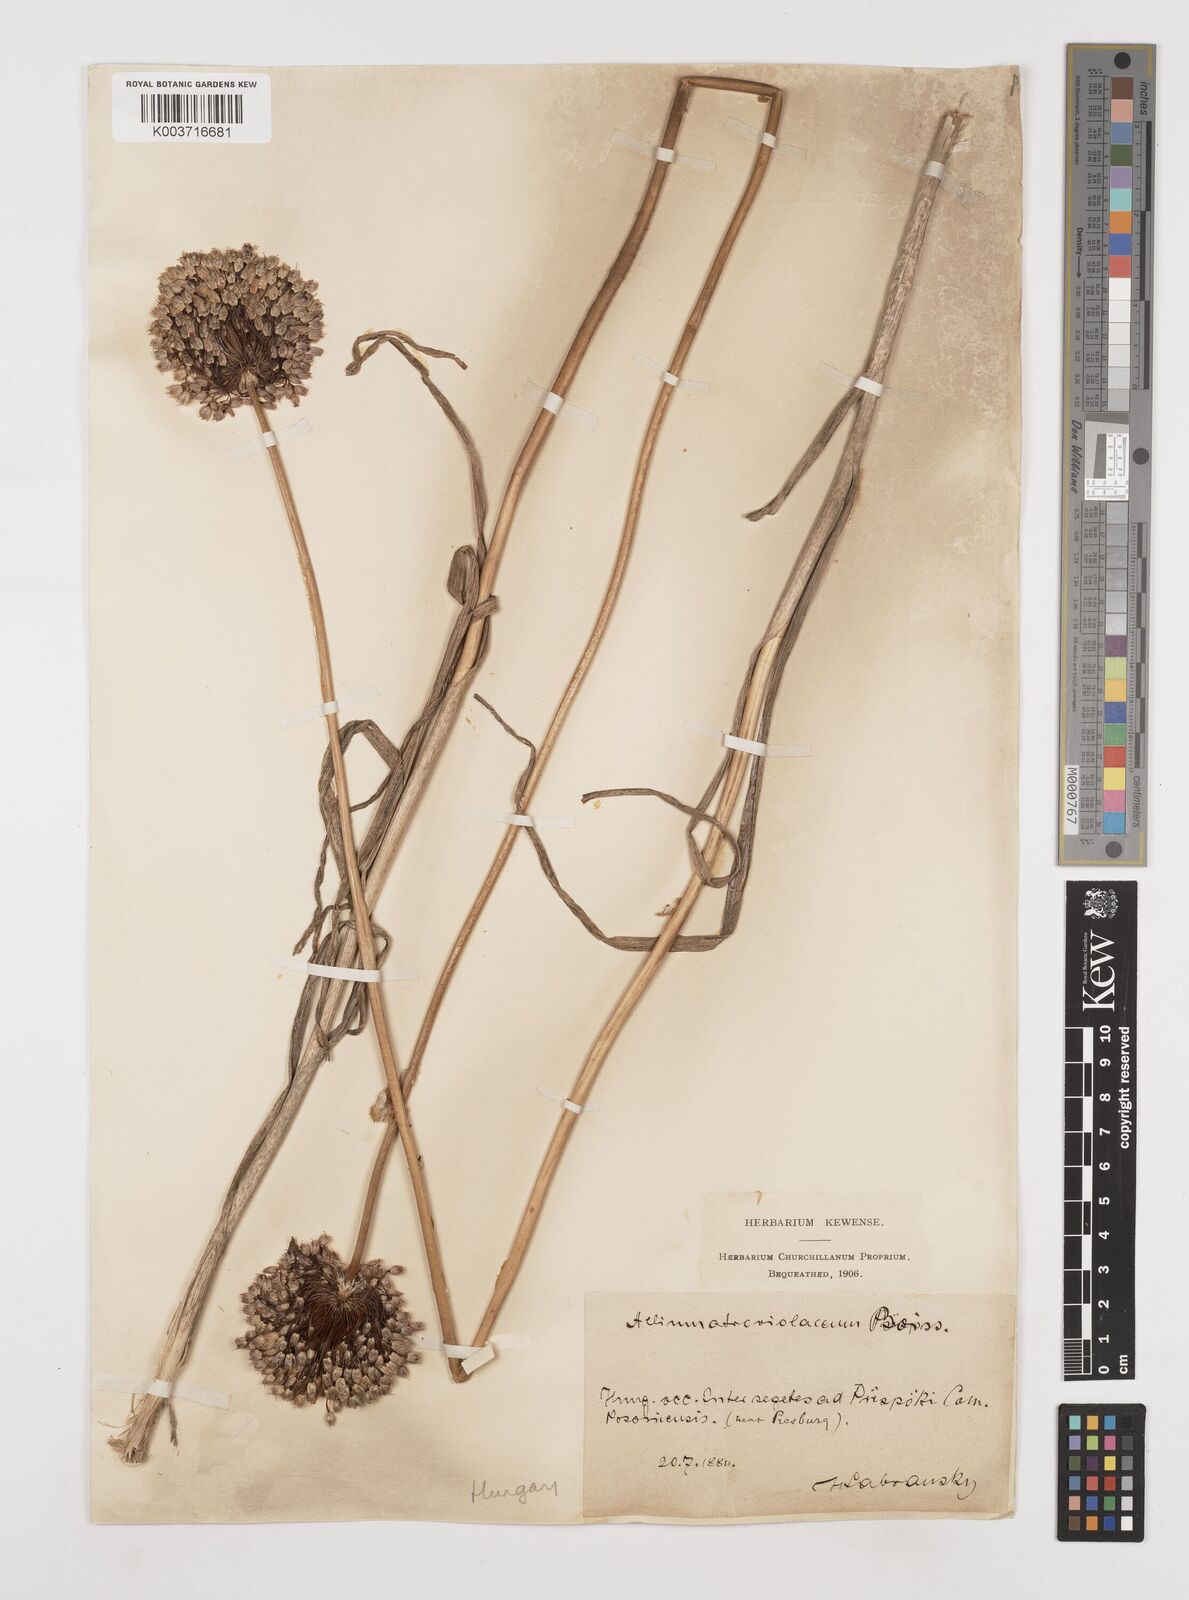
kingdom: Plantae
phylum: Tracheophyta
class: Liliopsida
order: Asparagales
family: Amaryllidaceae
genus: Allium
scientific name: Allium sphaerocephalon
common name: Round-headed leek
